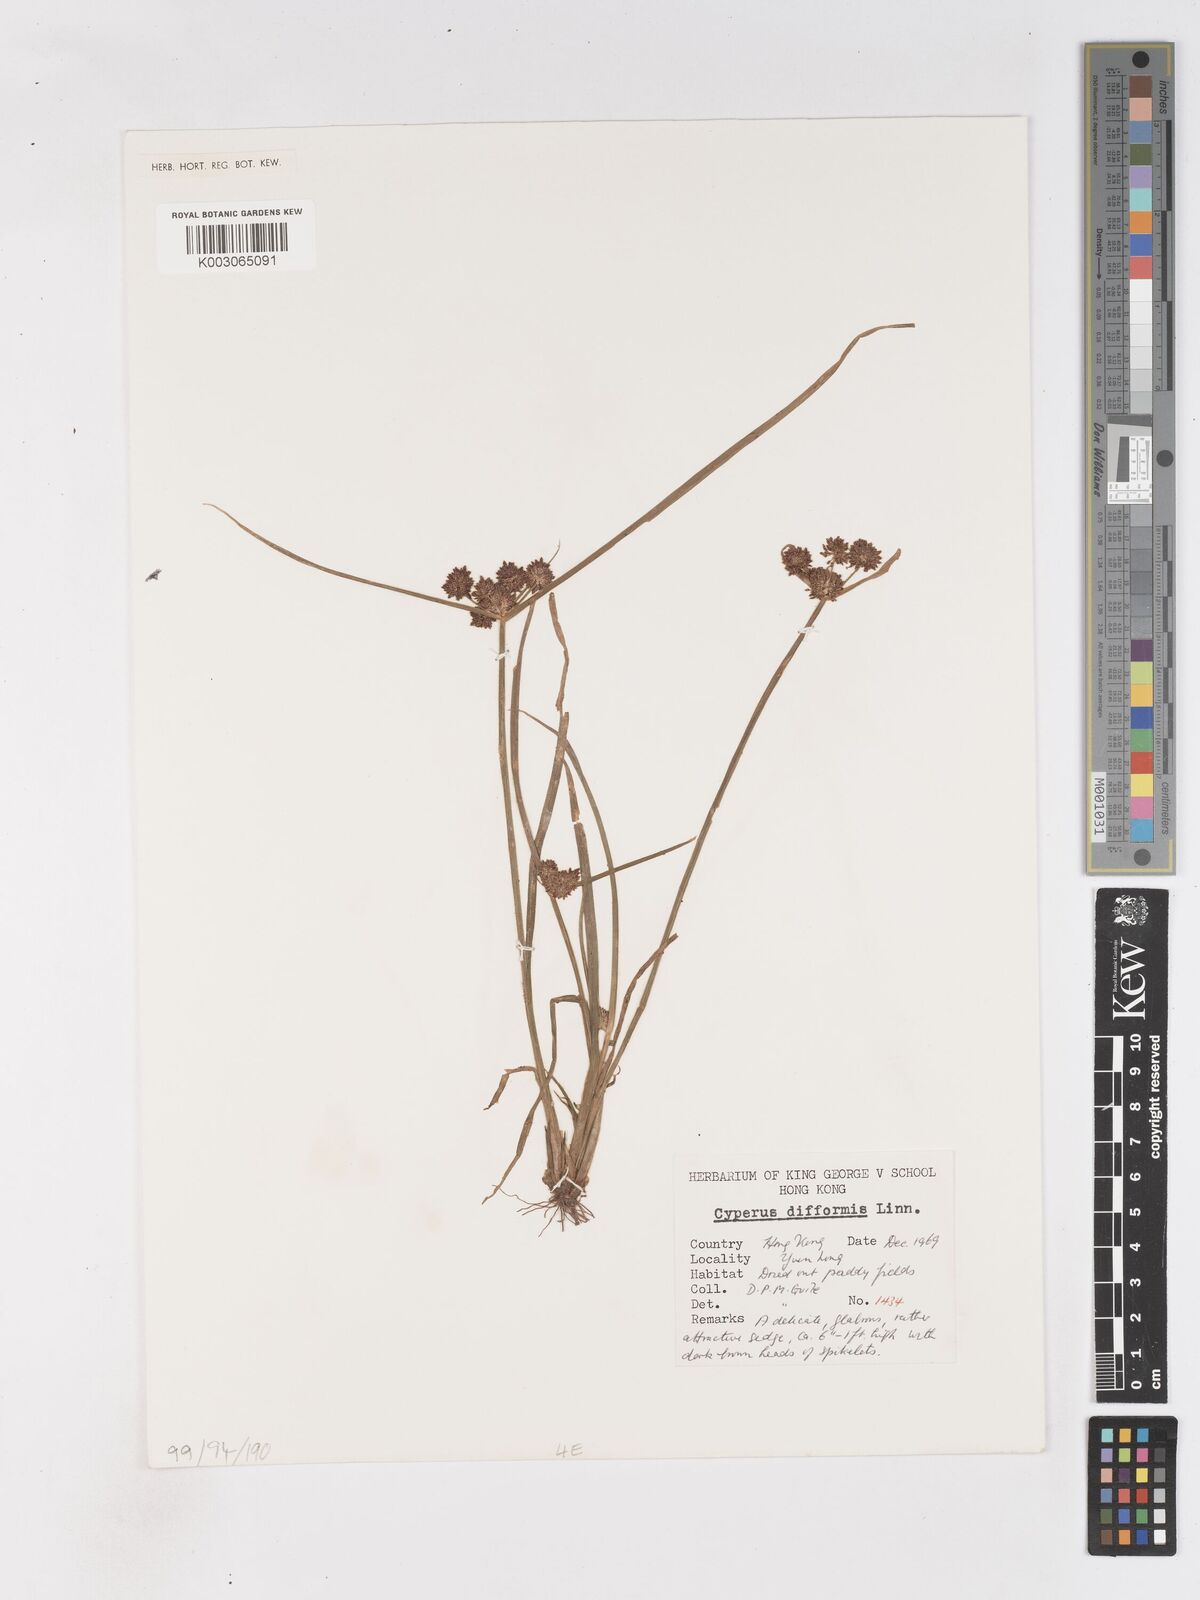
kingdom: Plantae
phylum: Tracheophyta
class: Liliopsida
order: Poales
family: Cyperaceae
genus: Cyperus
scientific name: Cyperus difformis
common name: Variable flatsedge
